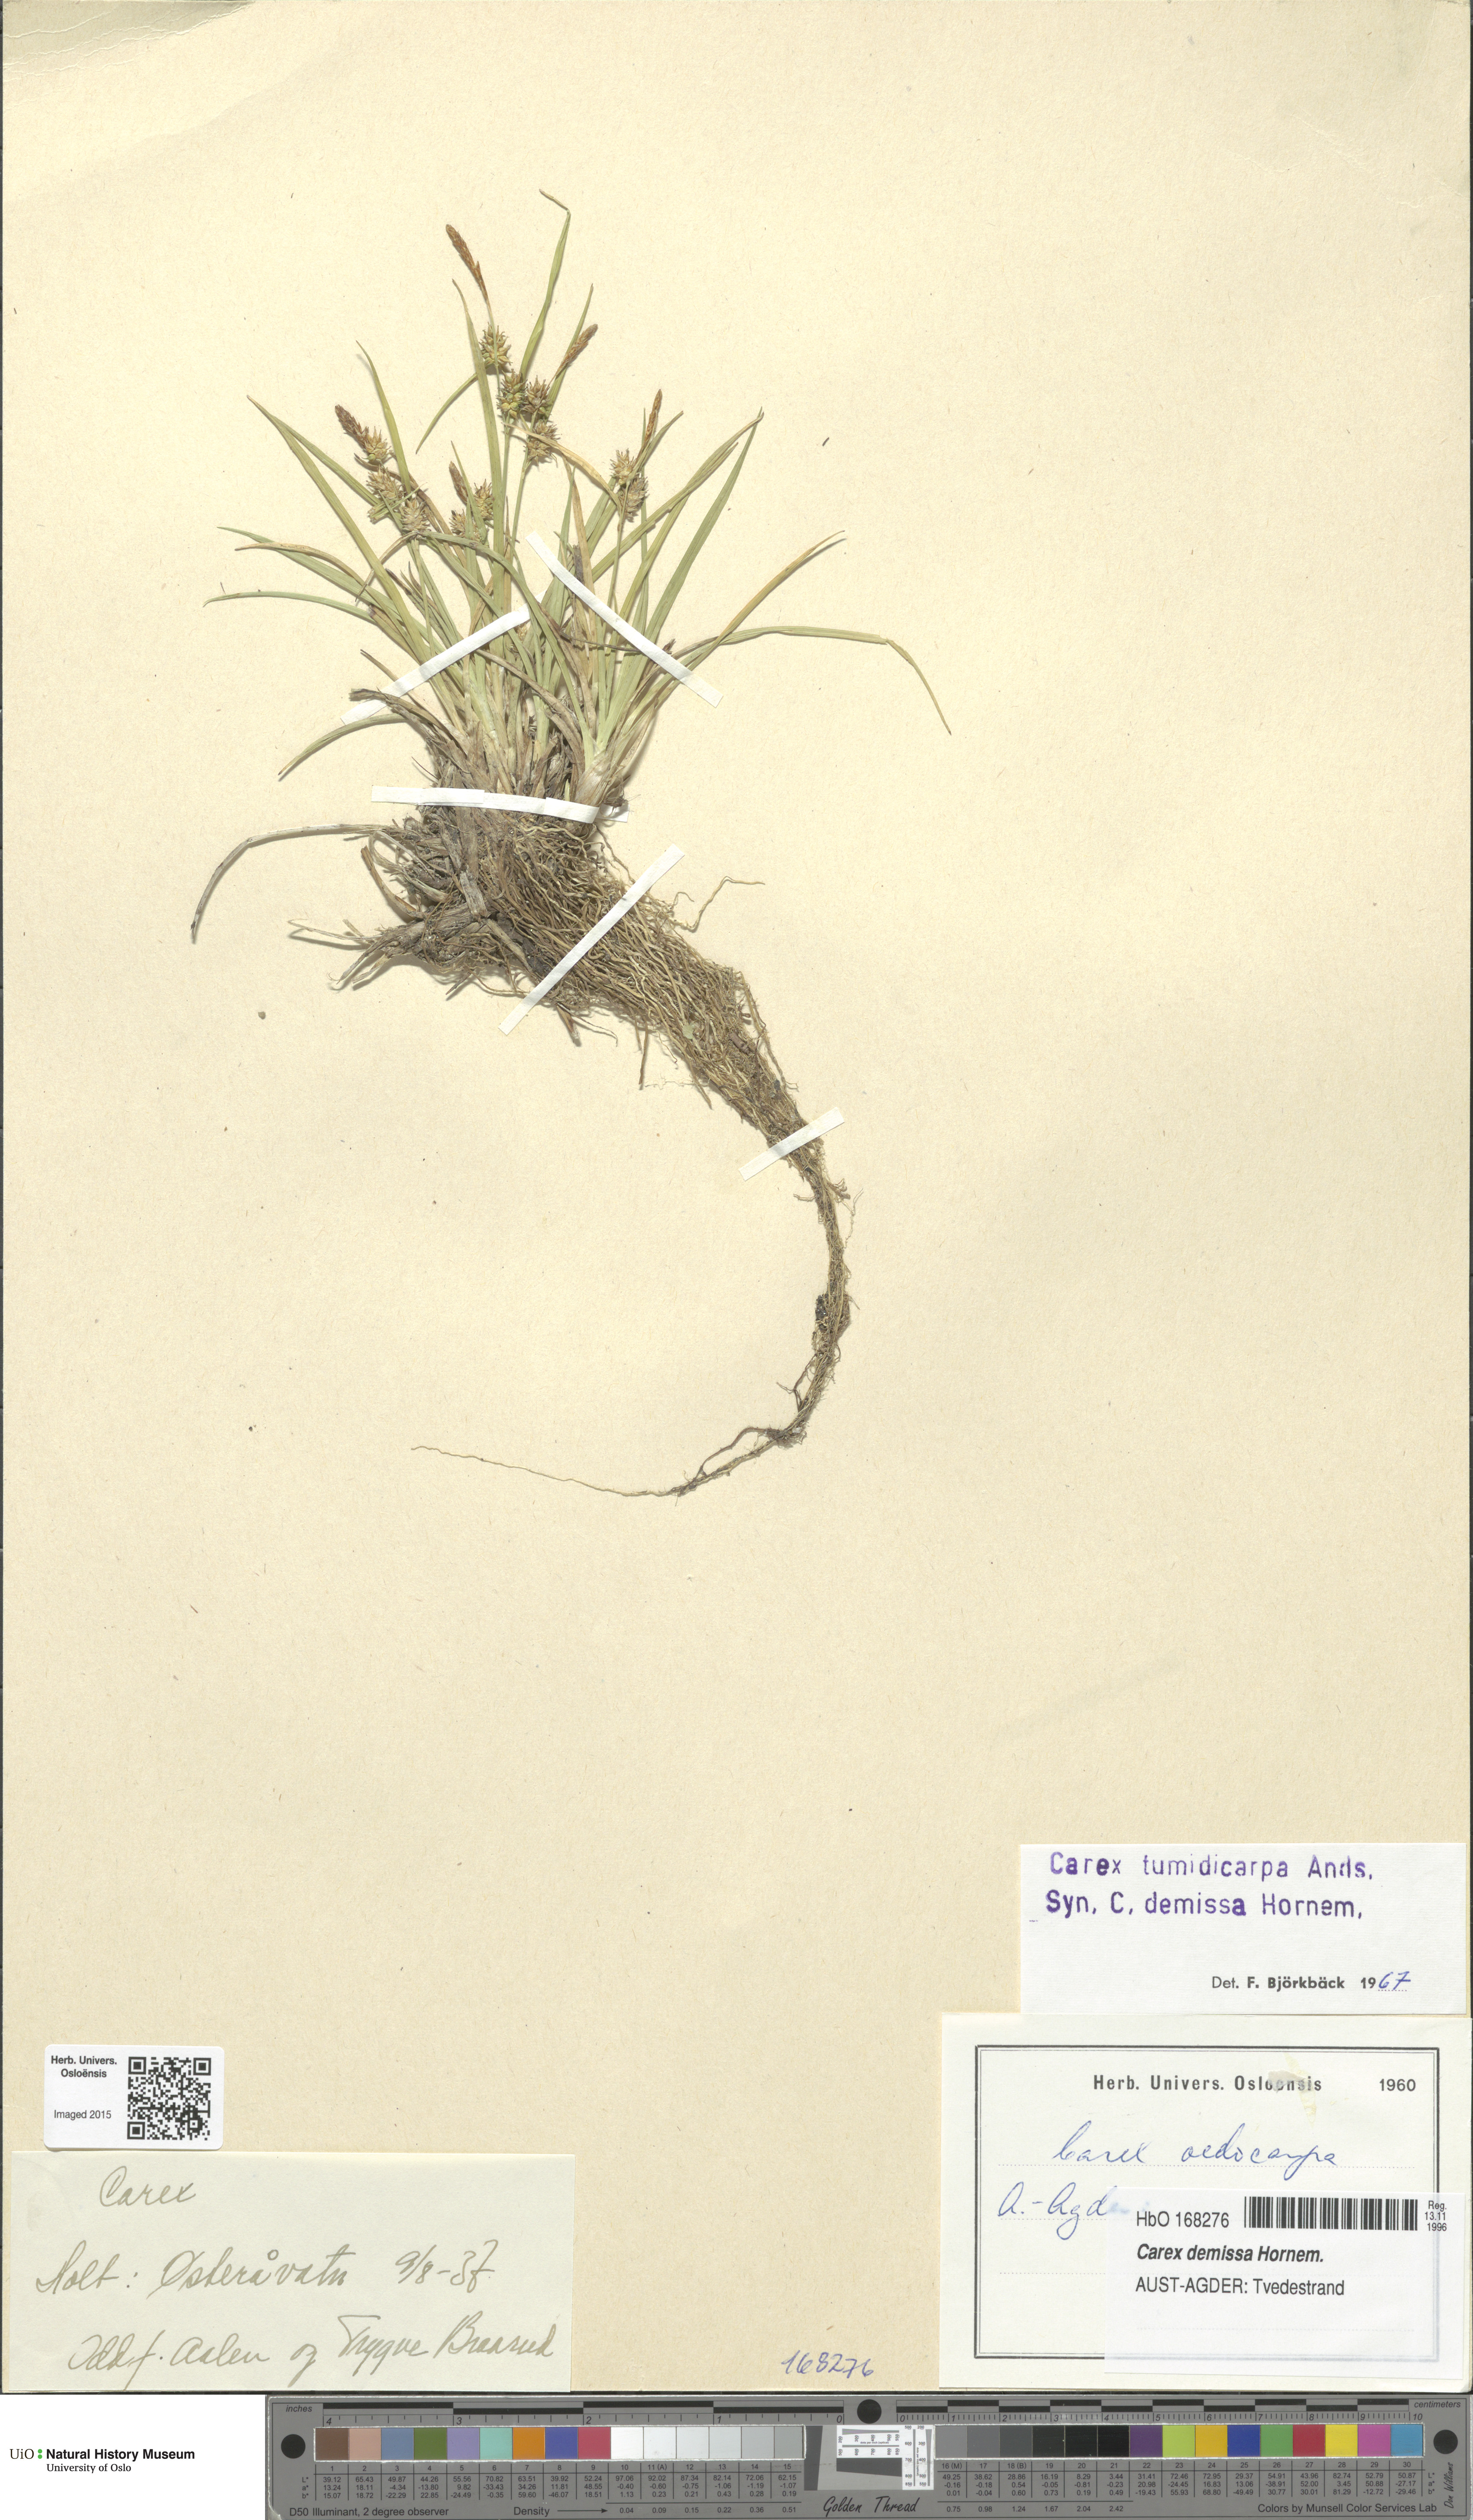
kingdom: Plantae
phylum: Tracheophyta
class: Liliopsida
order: Poales
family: Cyperaceae
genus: Carex
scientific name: Carex demissa
